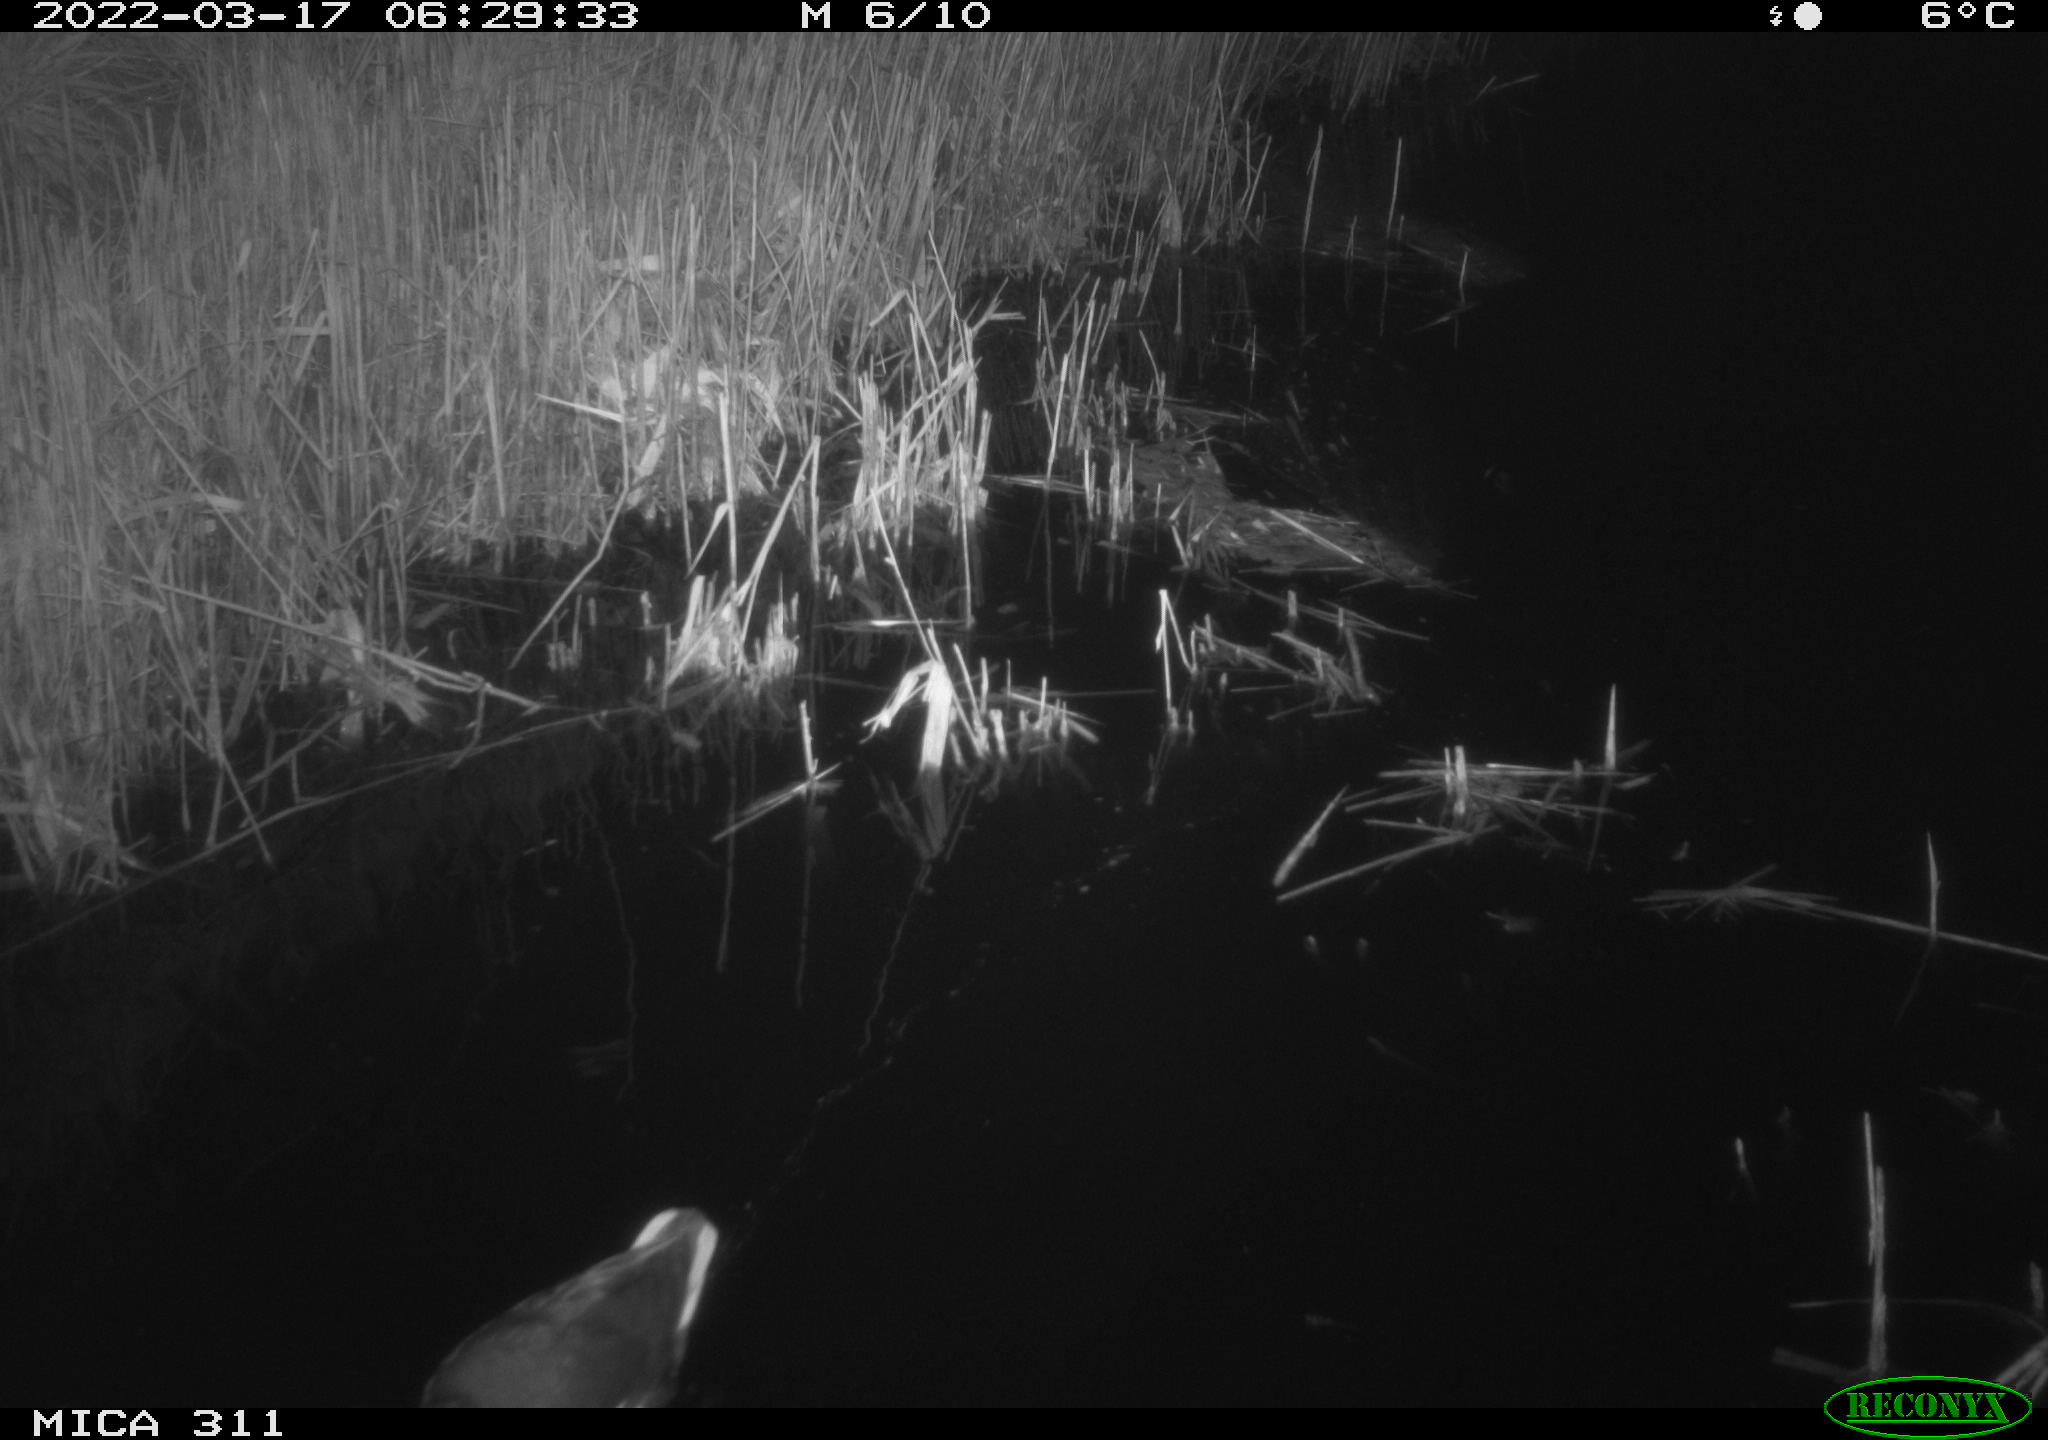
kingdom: Animalia
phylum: Chordata
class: Aves
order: Gruiformes
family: Rallidae
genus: Gallinula
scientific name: Gallinula chloropus
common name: Common moorhen
